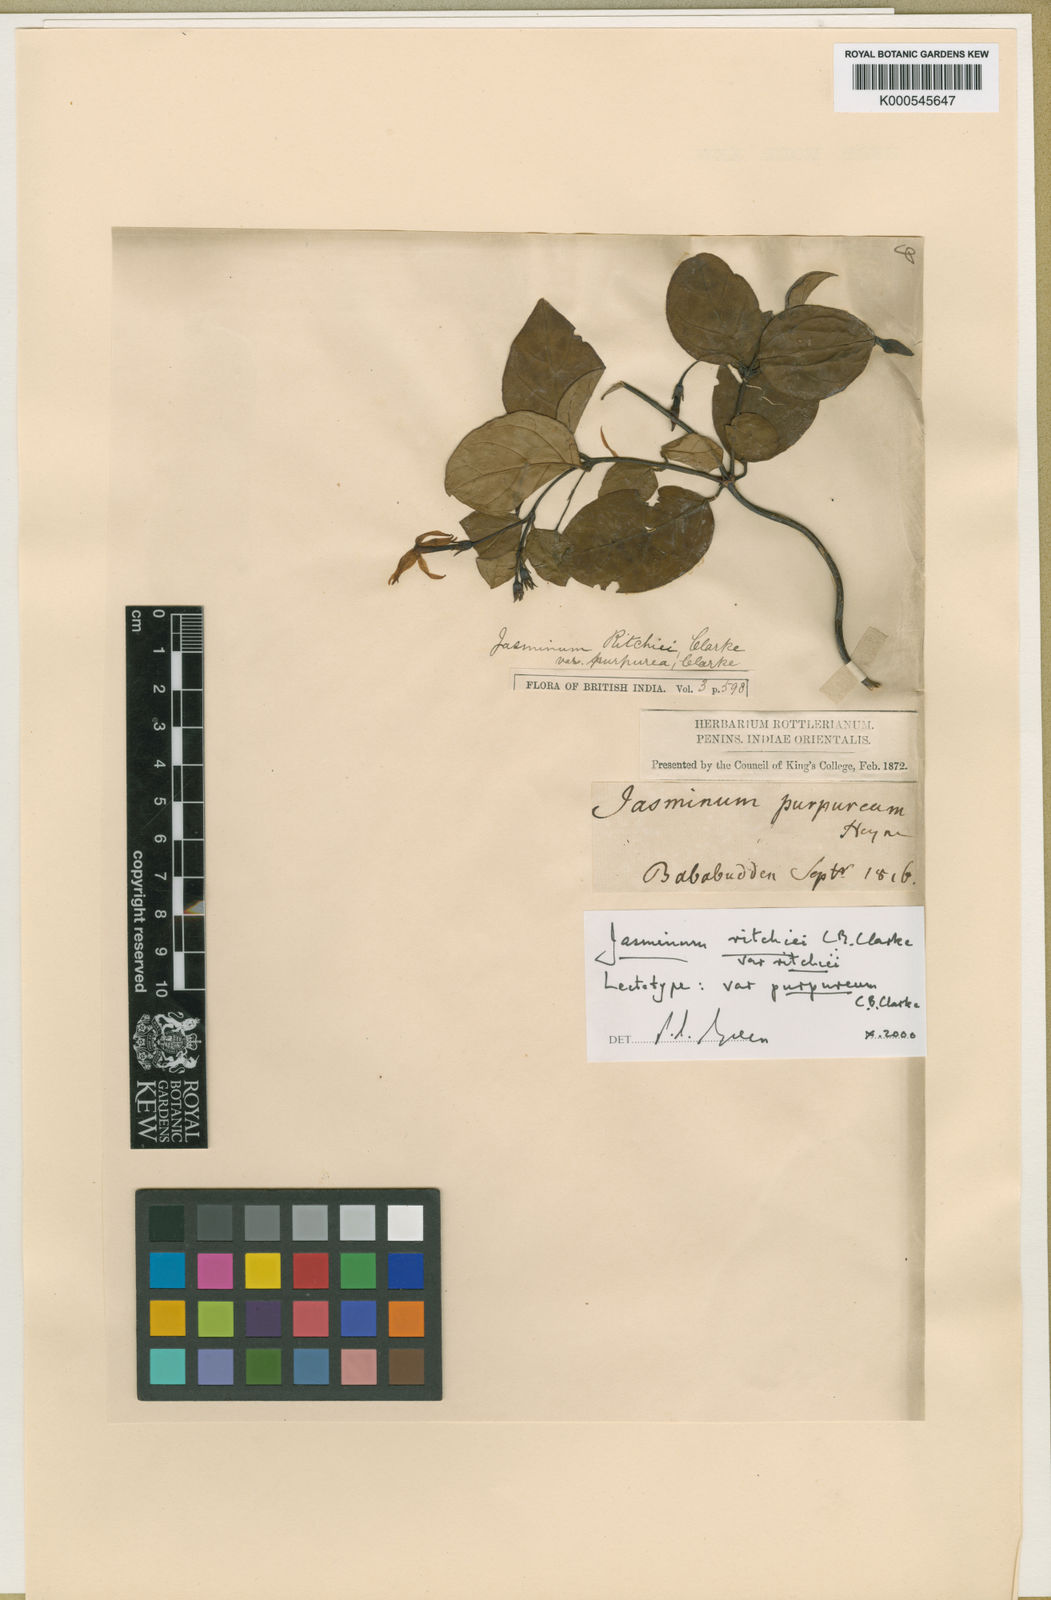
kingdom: Plantae
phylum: Tracheophyta
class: Magnoliopsida
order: Lamiales
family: Oleaceae
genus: Jasminum
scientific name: Jasminum ritchiei
